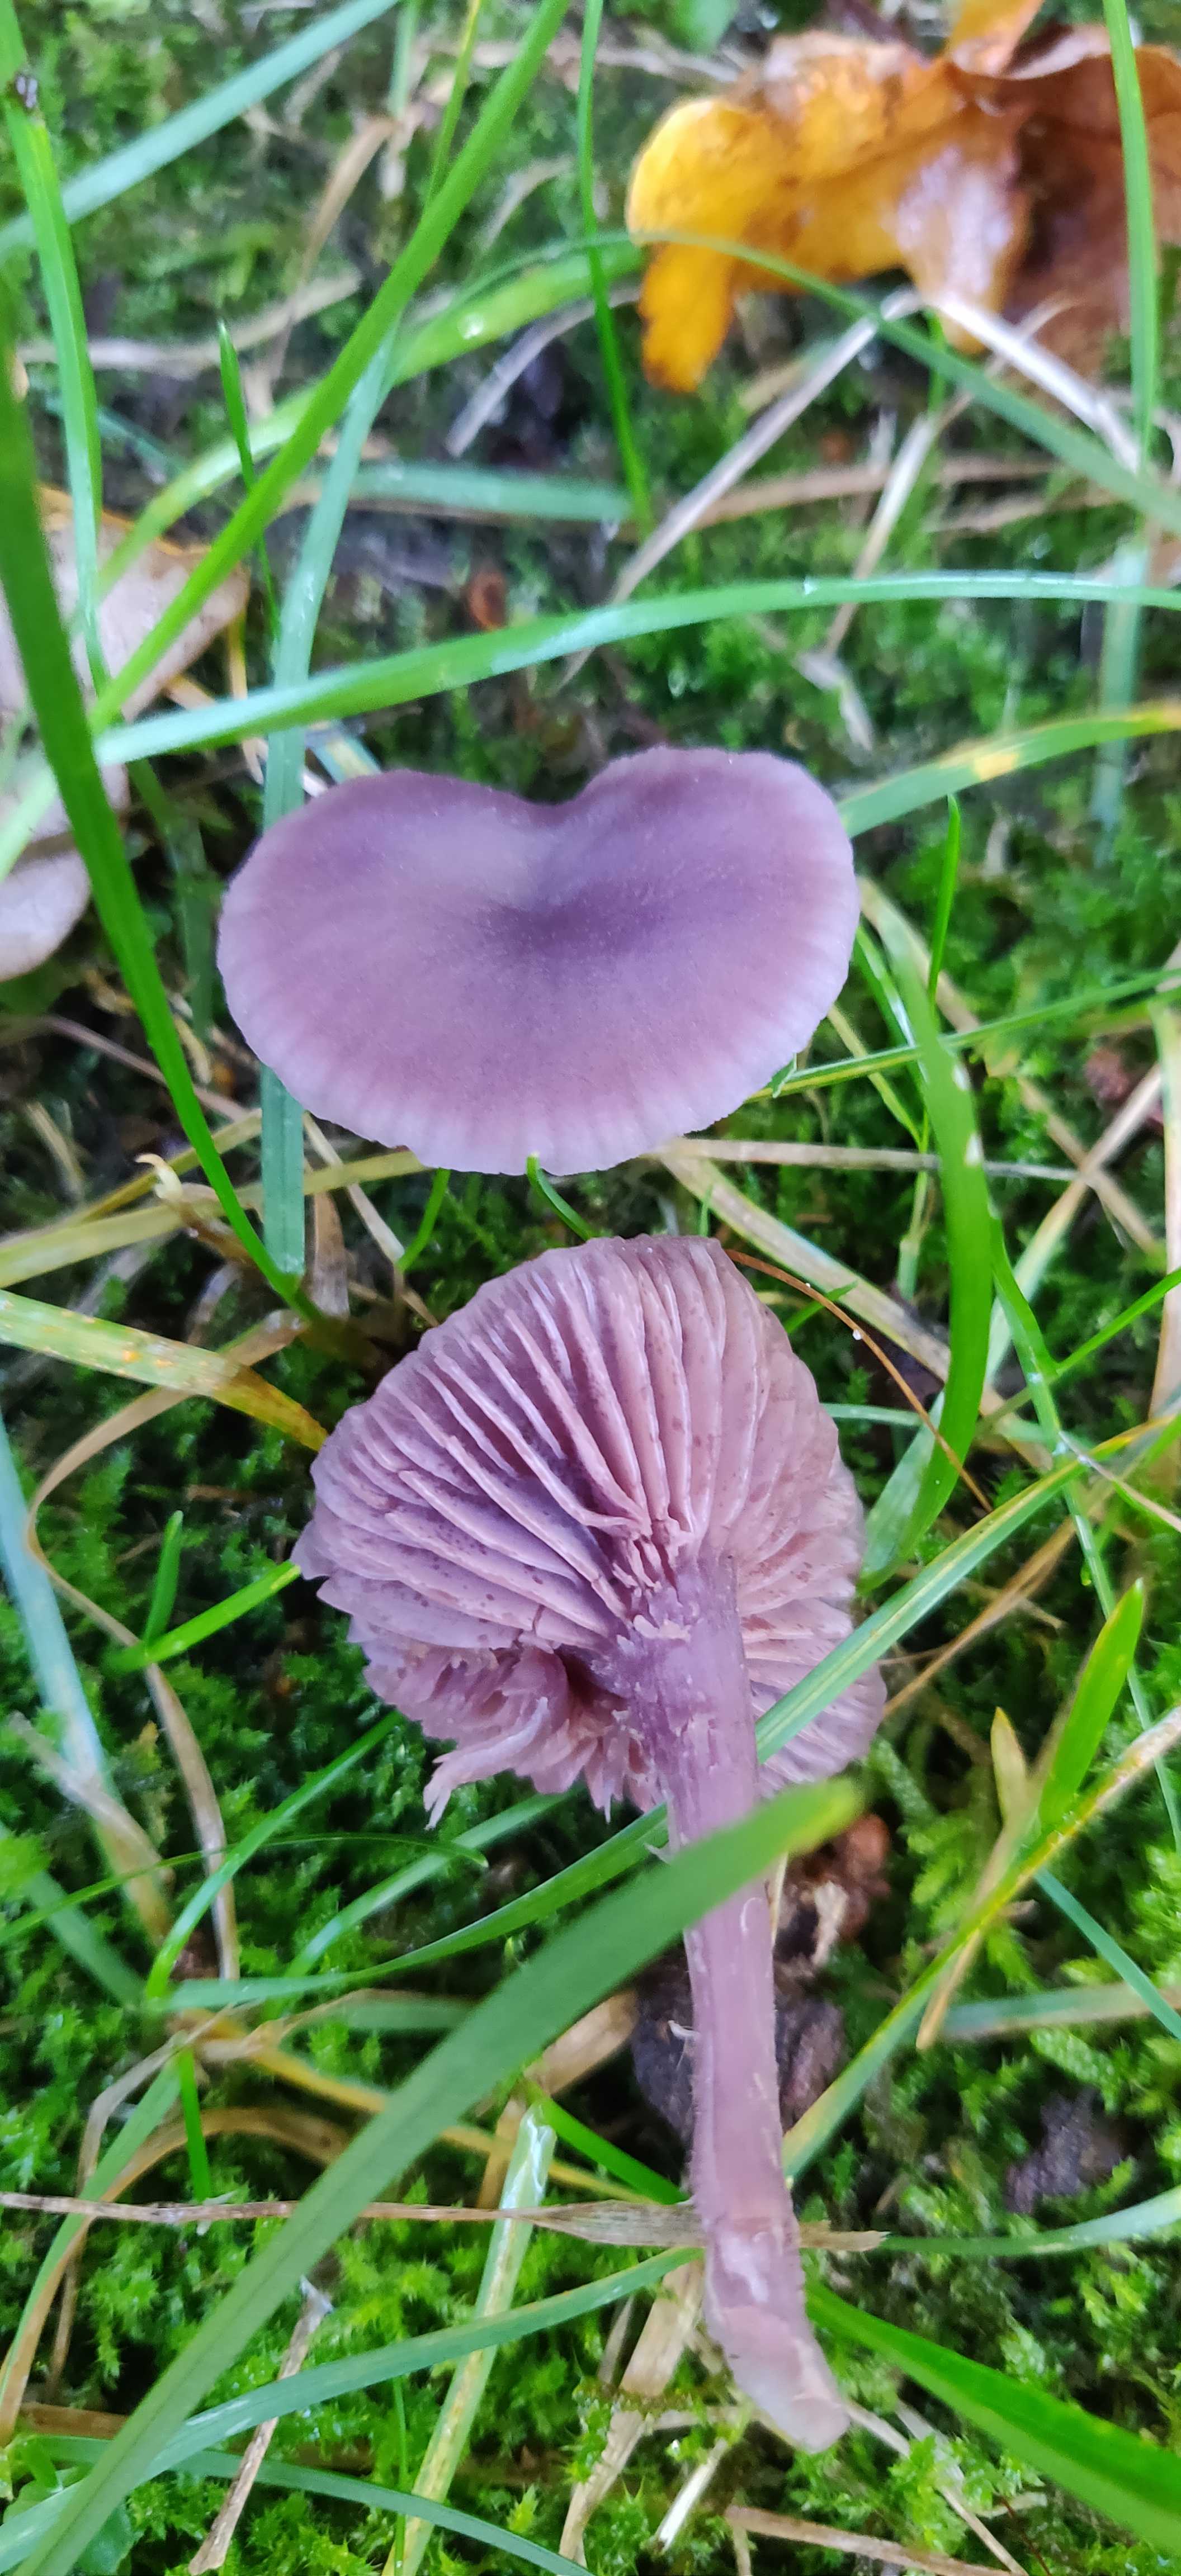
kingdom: Fungi
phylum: Basidiomycota
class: Agaricomycetes
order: Agaricales
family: Hydnangiaceae
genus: Laccaria
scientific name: Laccaria amethystina
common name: violet ametysthat
